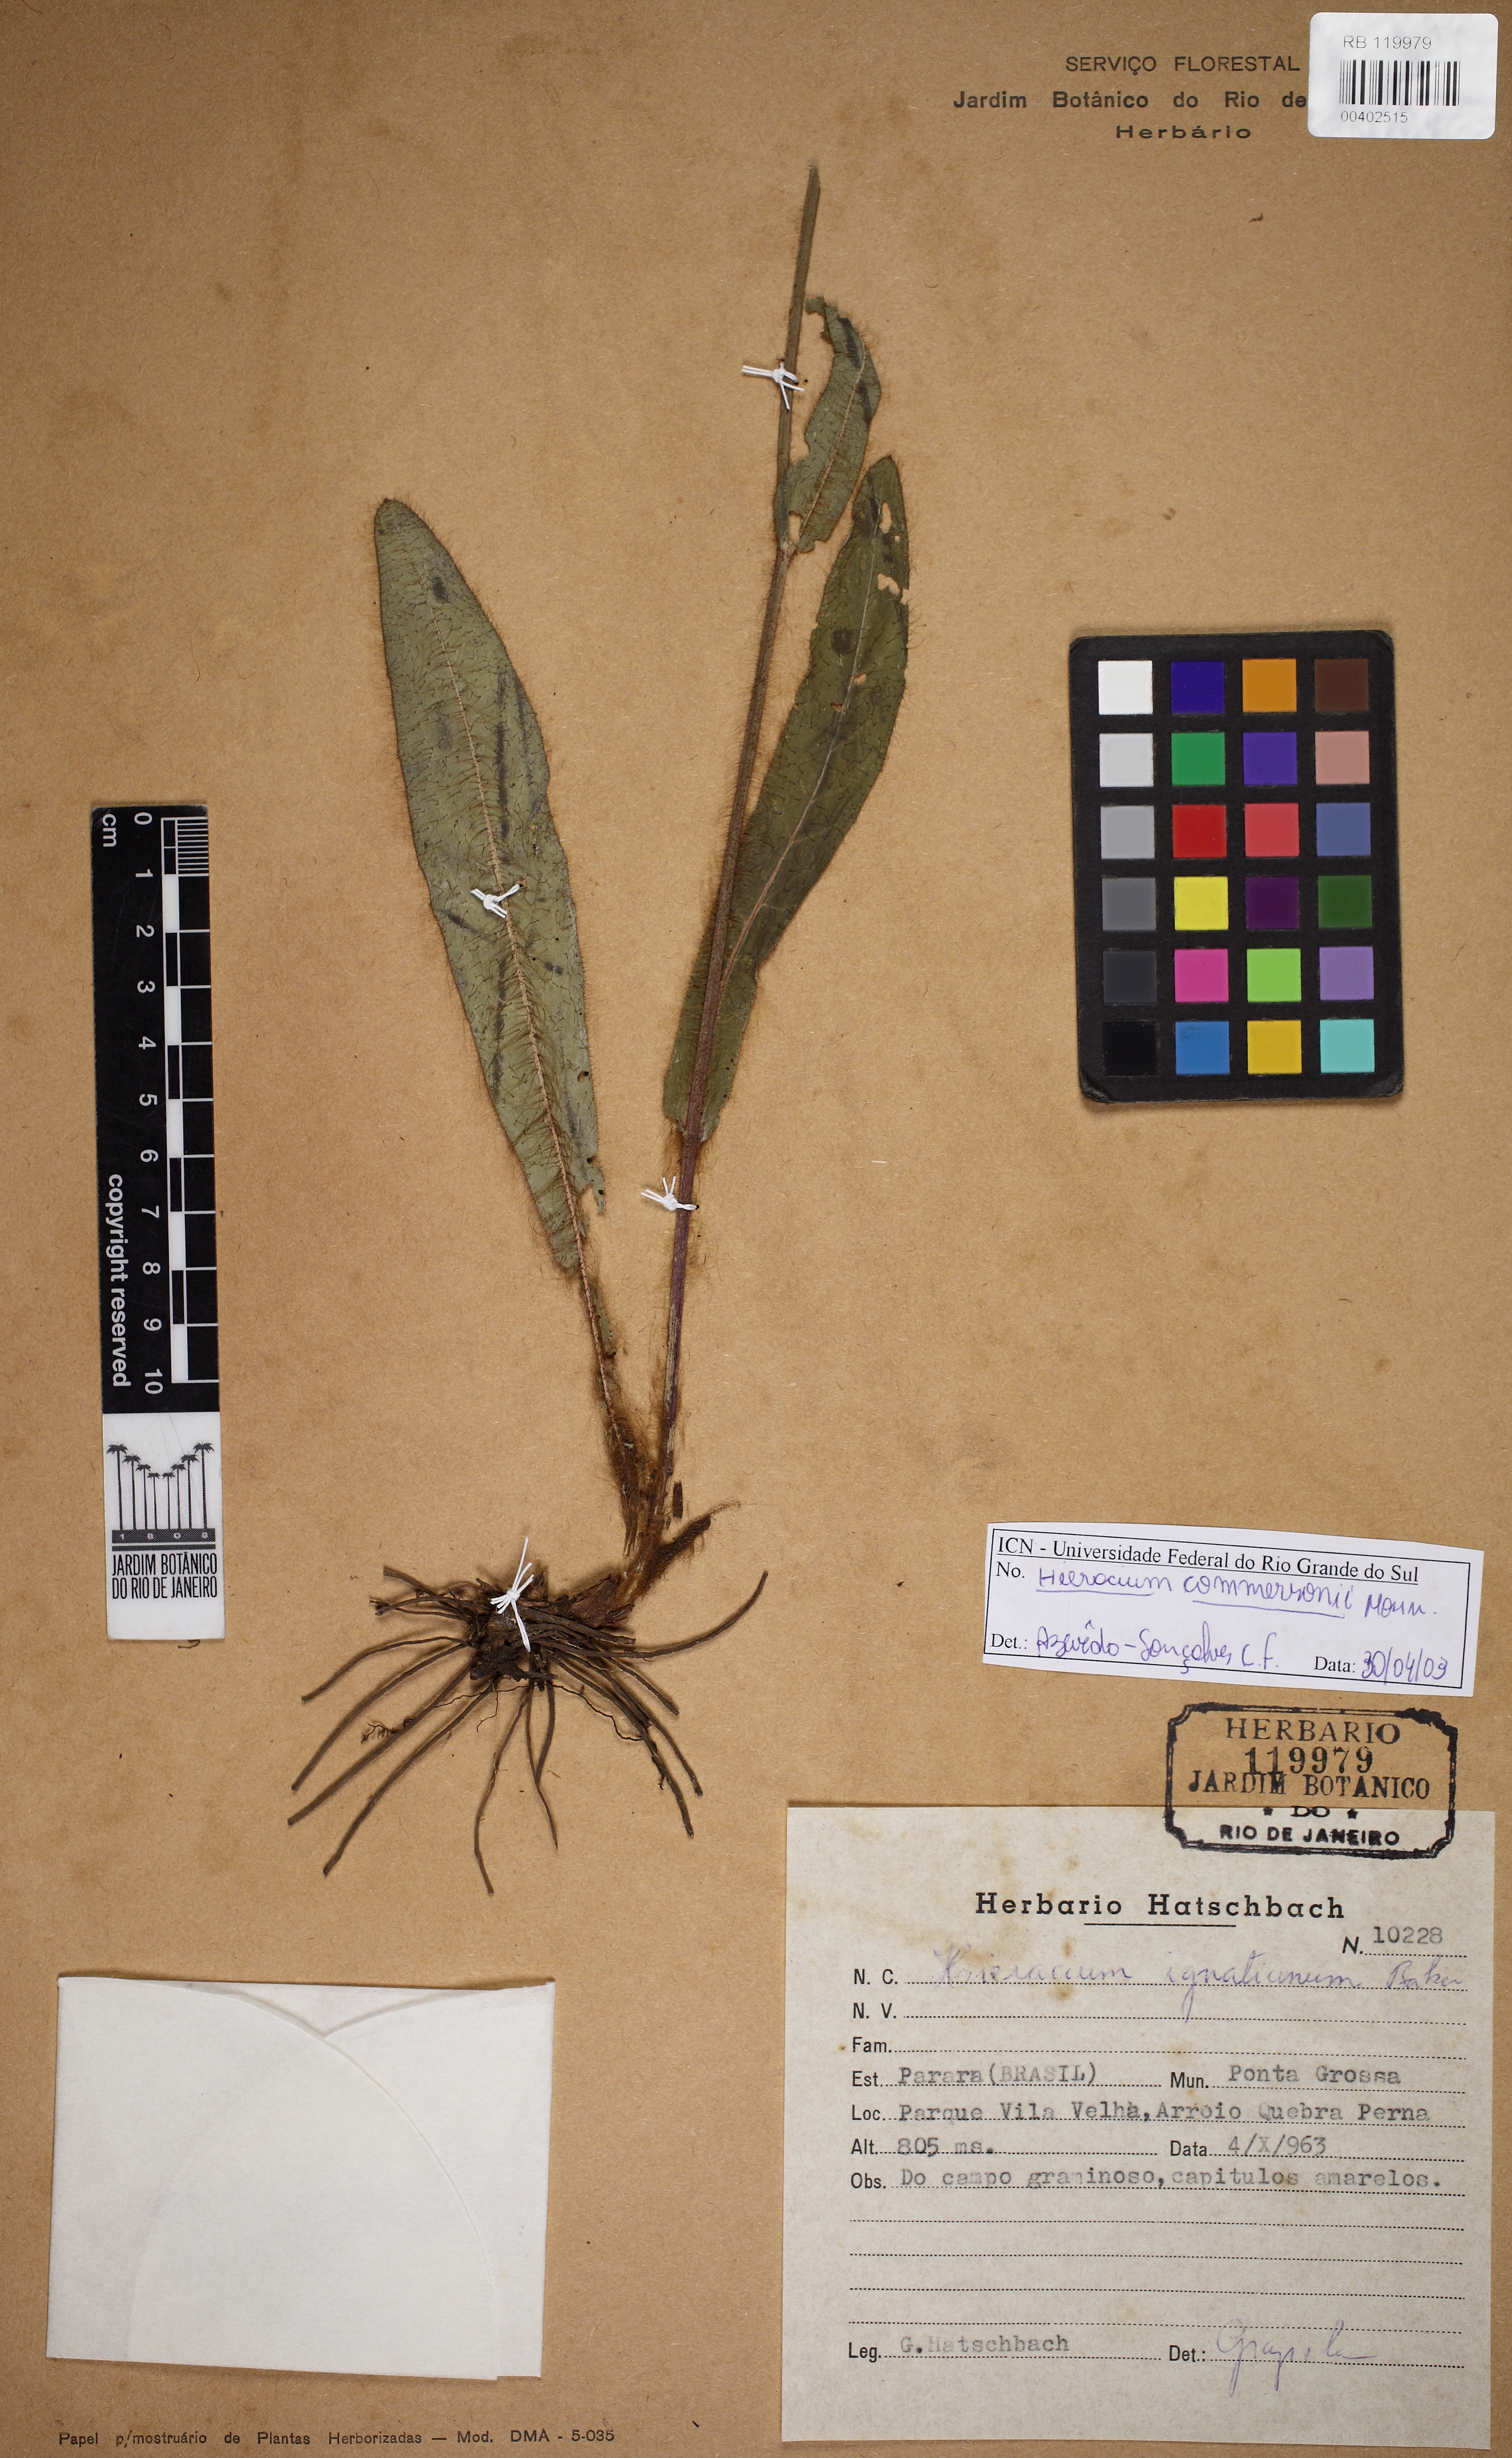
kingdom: Plantae
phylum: Tracheophyta
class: Magnoliopsida
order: Asterales
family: Asteraceae
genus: Hieracium
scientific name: Hieracium semiglabratum
